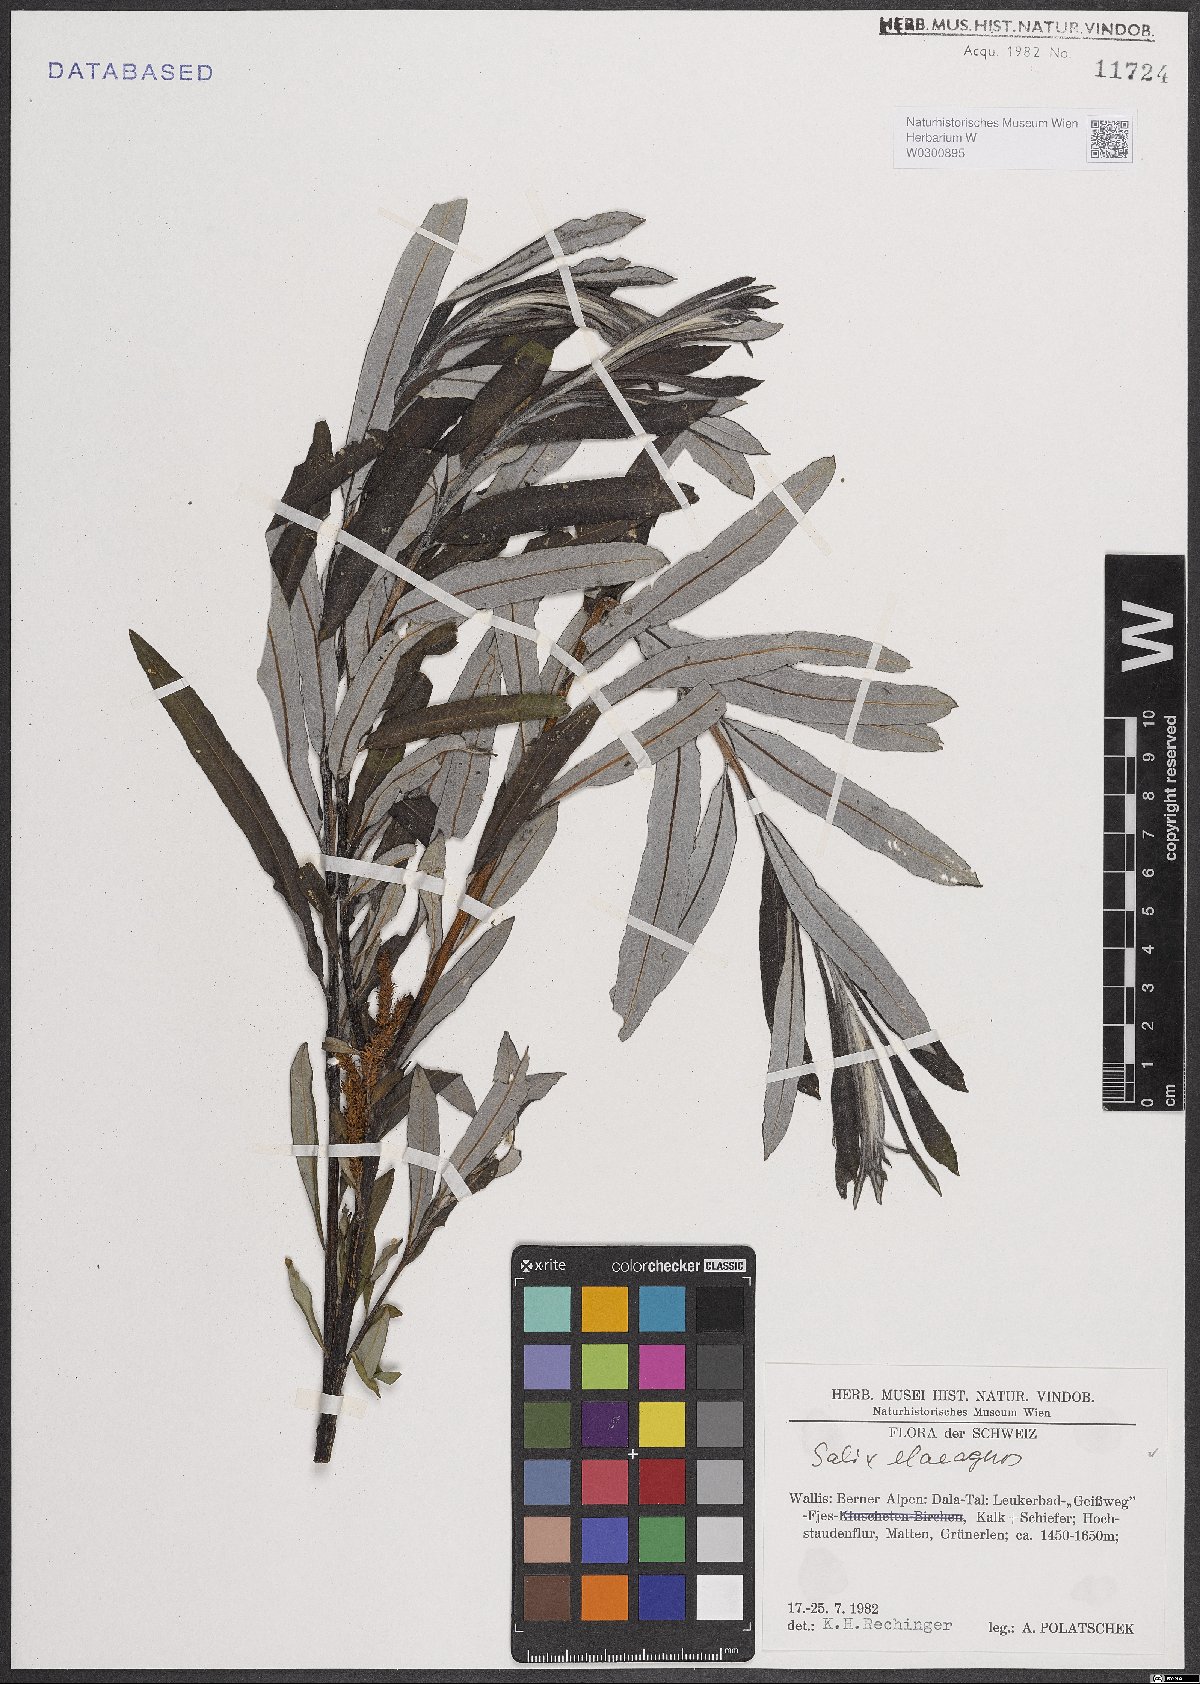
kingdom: Plantae
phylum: Tracheophyta
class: Magnoliopsida
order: Malpighiales
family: Salicaceae
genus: Salix
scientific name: Salix eleagnos
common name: Elaeagnus willow
